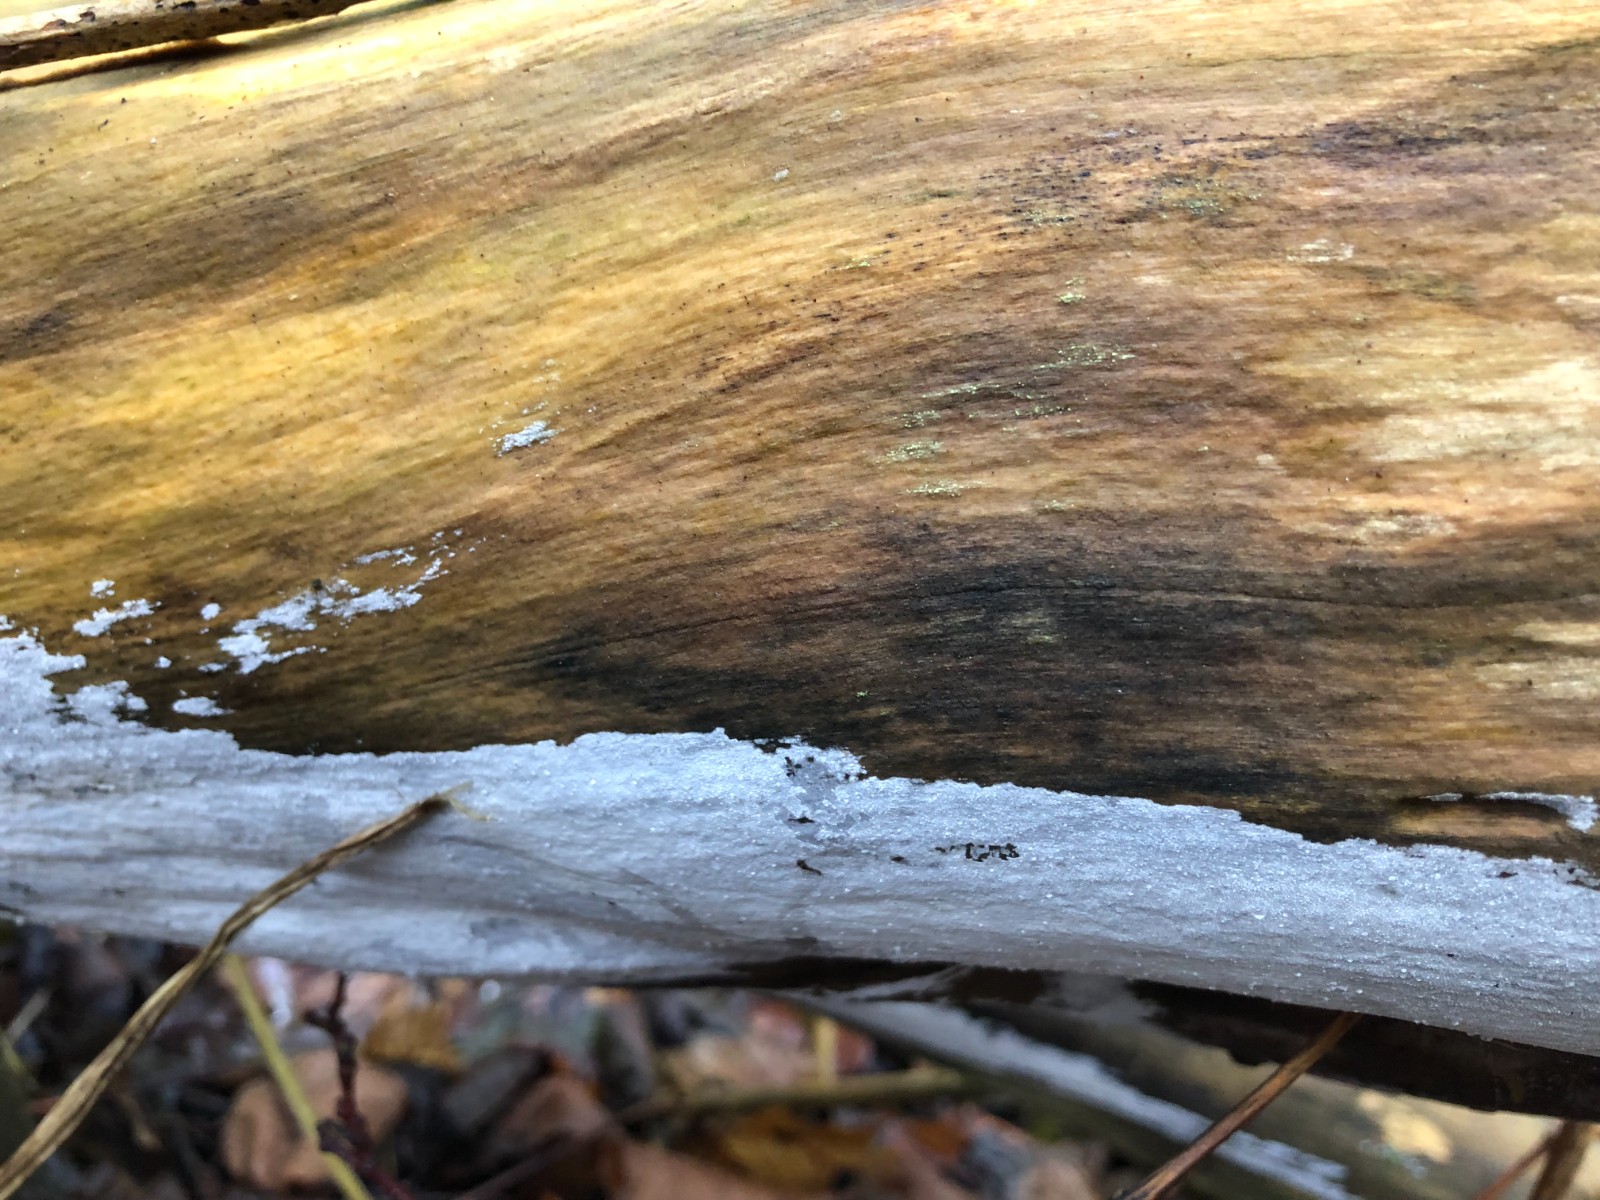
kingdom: Fungi
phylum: Basidiomycota
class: Agaricomycetes
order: Corticiales
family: Corticiaceae
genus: Lyomyces
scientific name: Lyomyces sambuci
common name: almindelig hyldehinde
